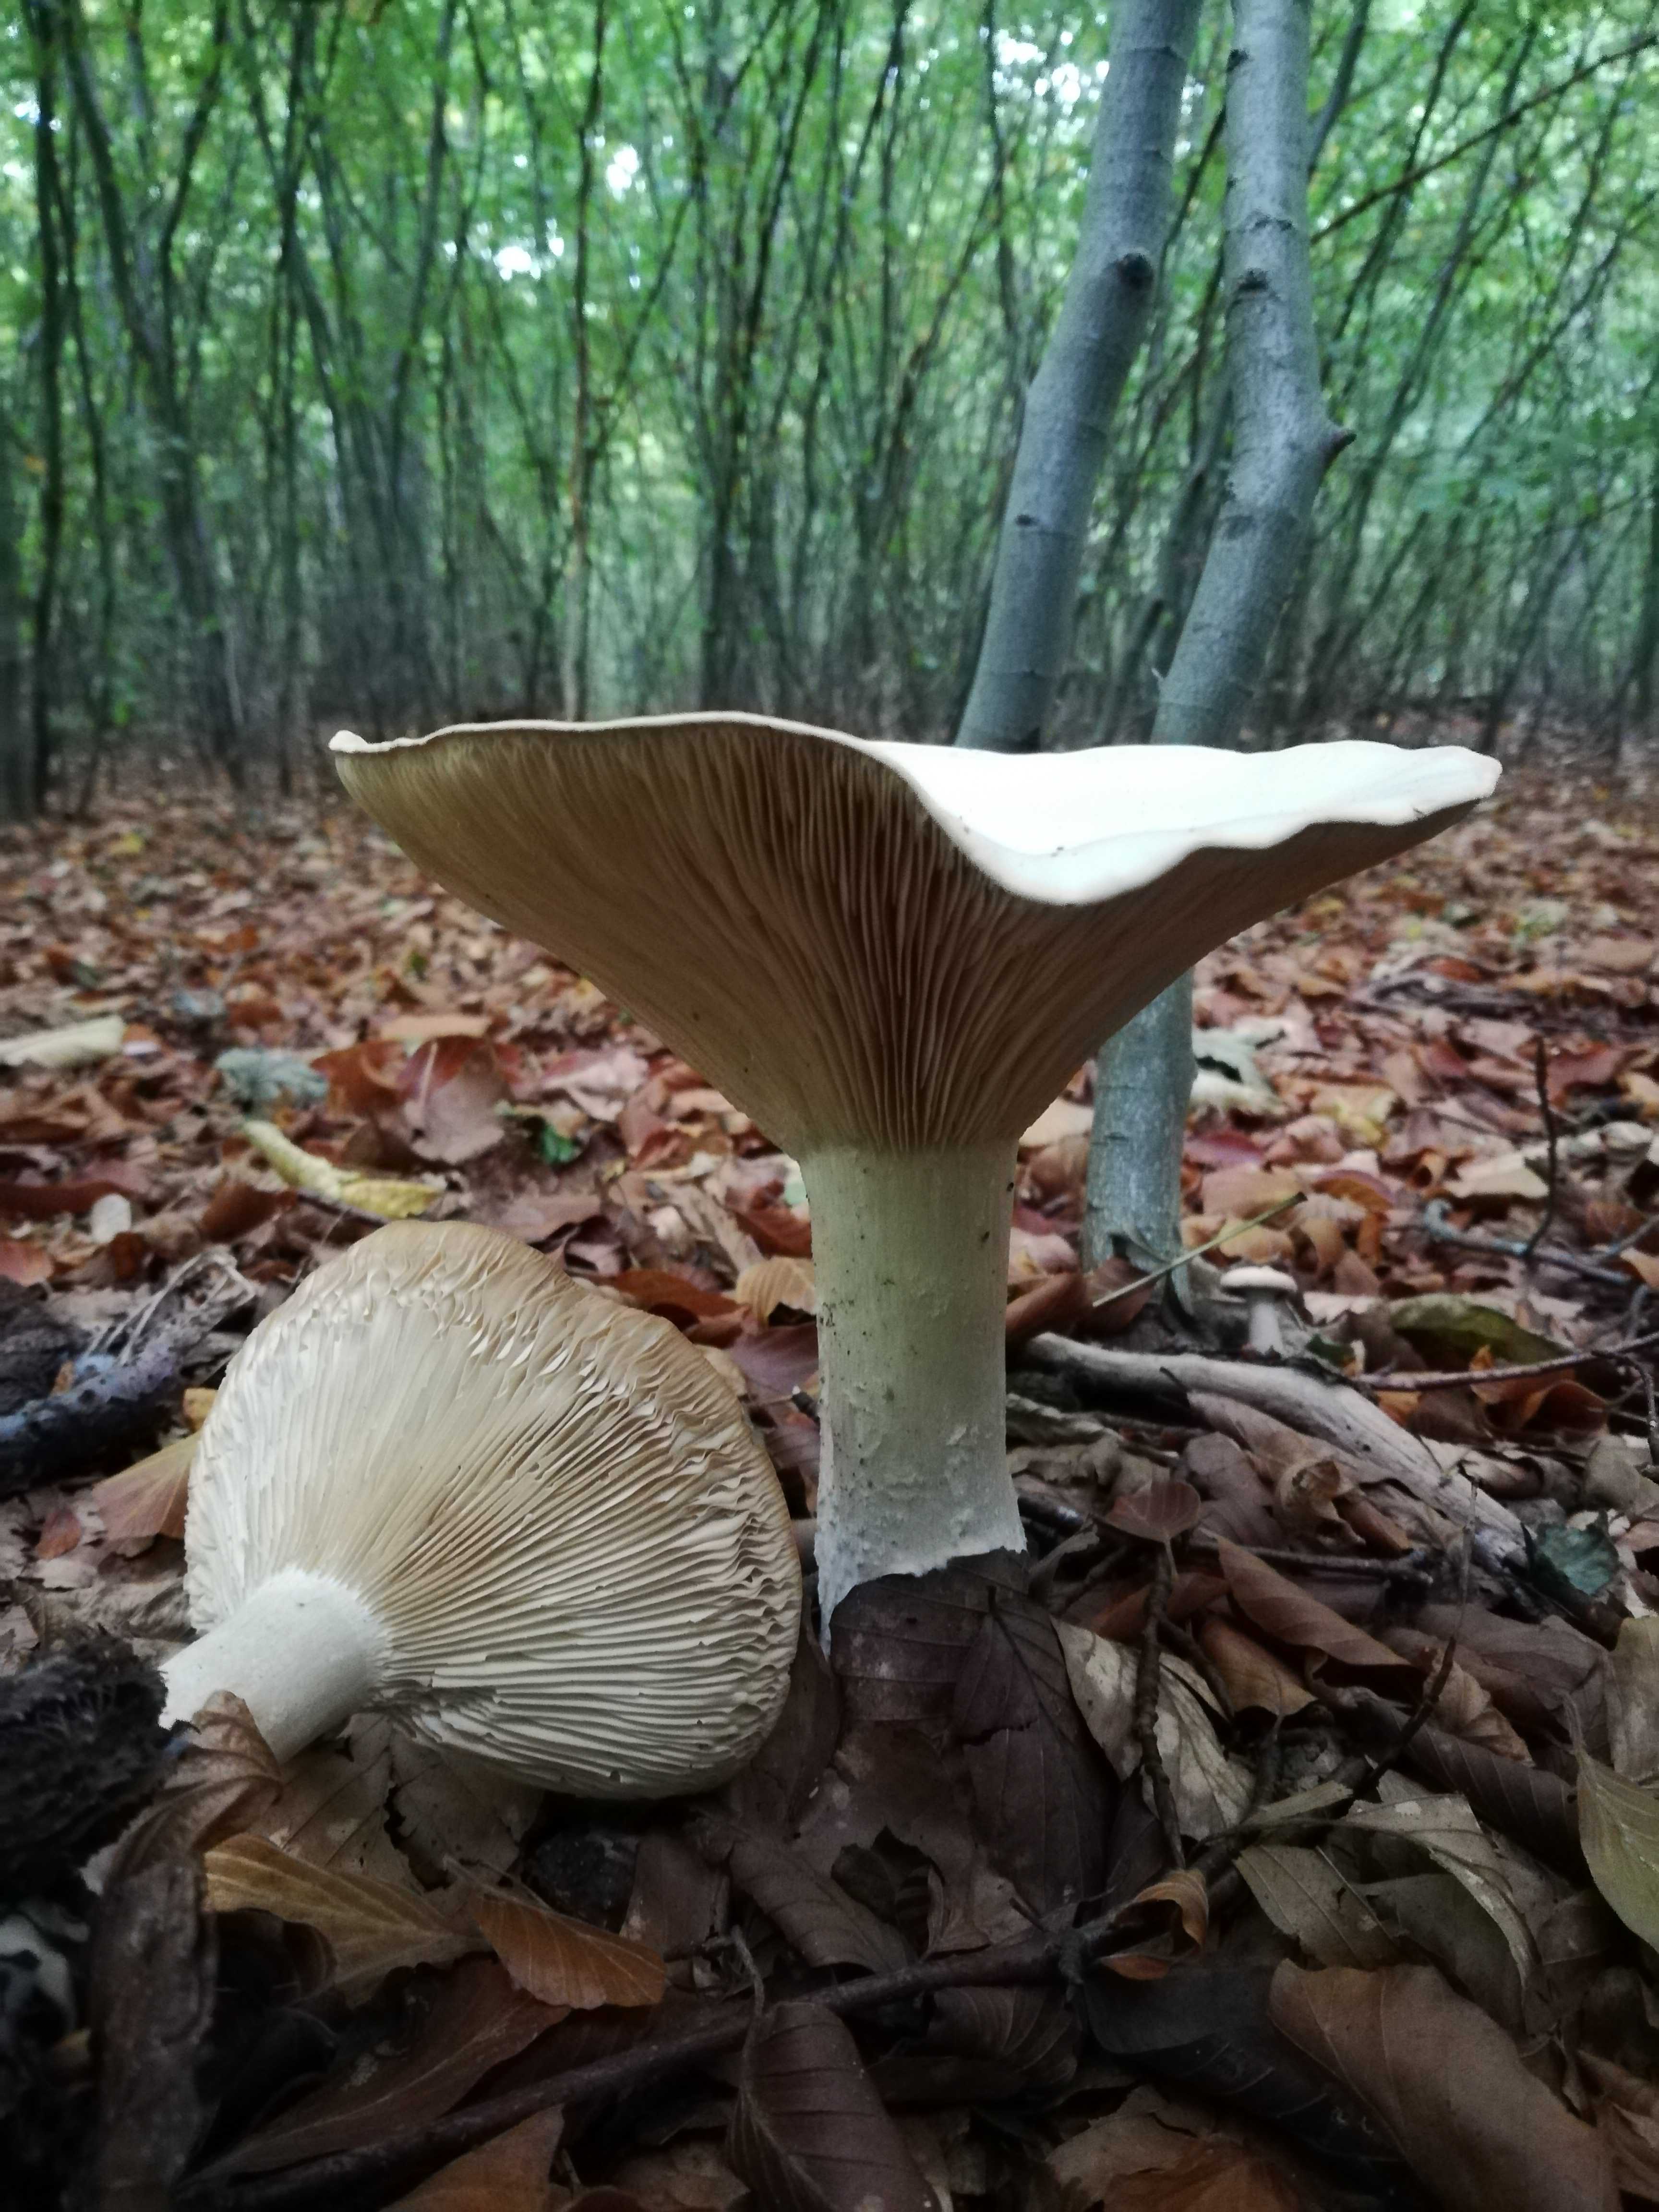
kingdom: Fungi
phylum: Basidiomycota
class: Agaricomycetes
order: Agaricales
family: Tricholomataceae
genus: Infundibulicybe
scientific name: Infundibulicybe geotropa
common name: stor tragthat
